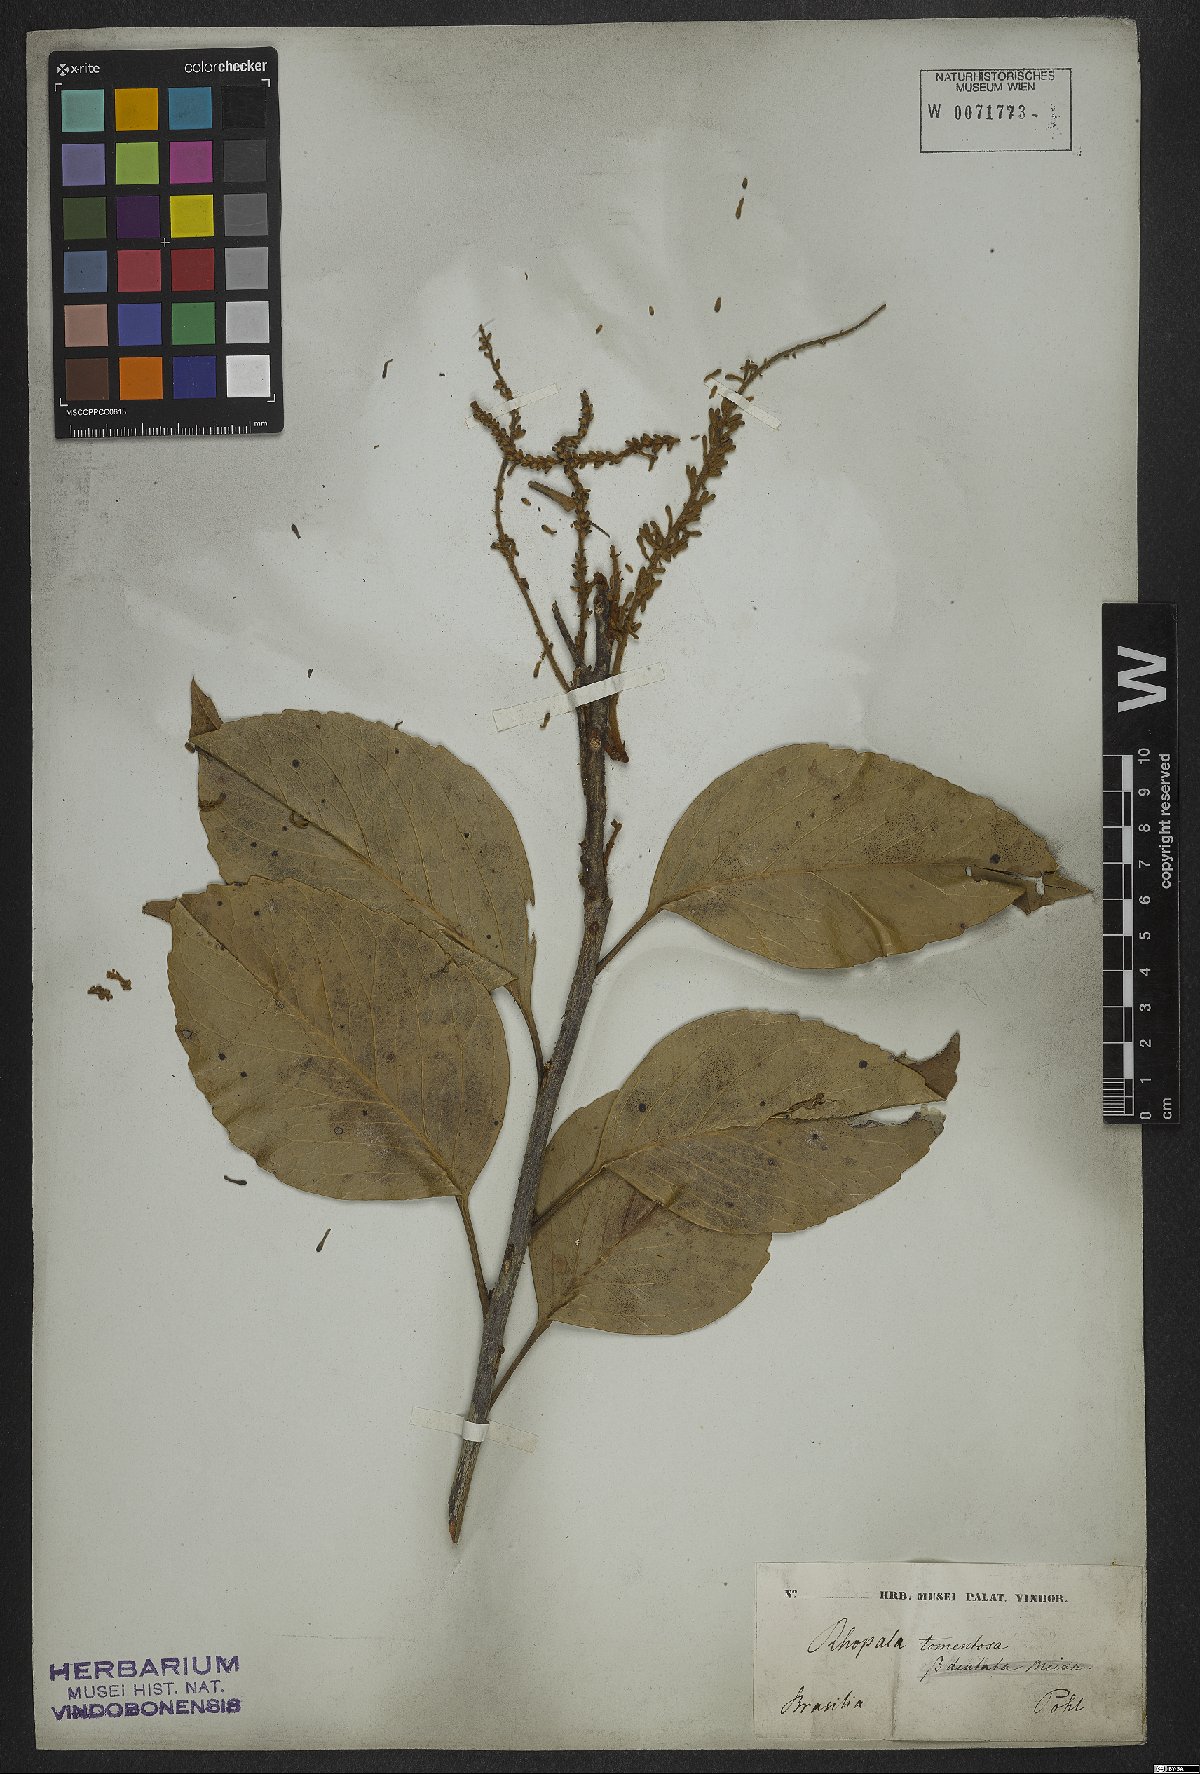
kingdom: Plantae
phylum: Tracheophyta
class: Magnoliopsida
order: Proteales
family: Proteaceae
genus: Roupala
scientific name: Roupala montana
